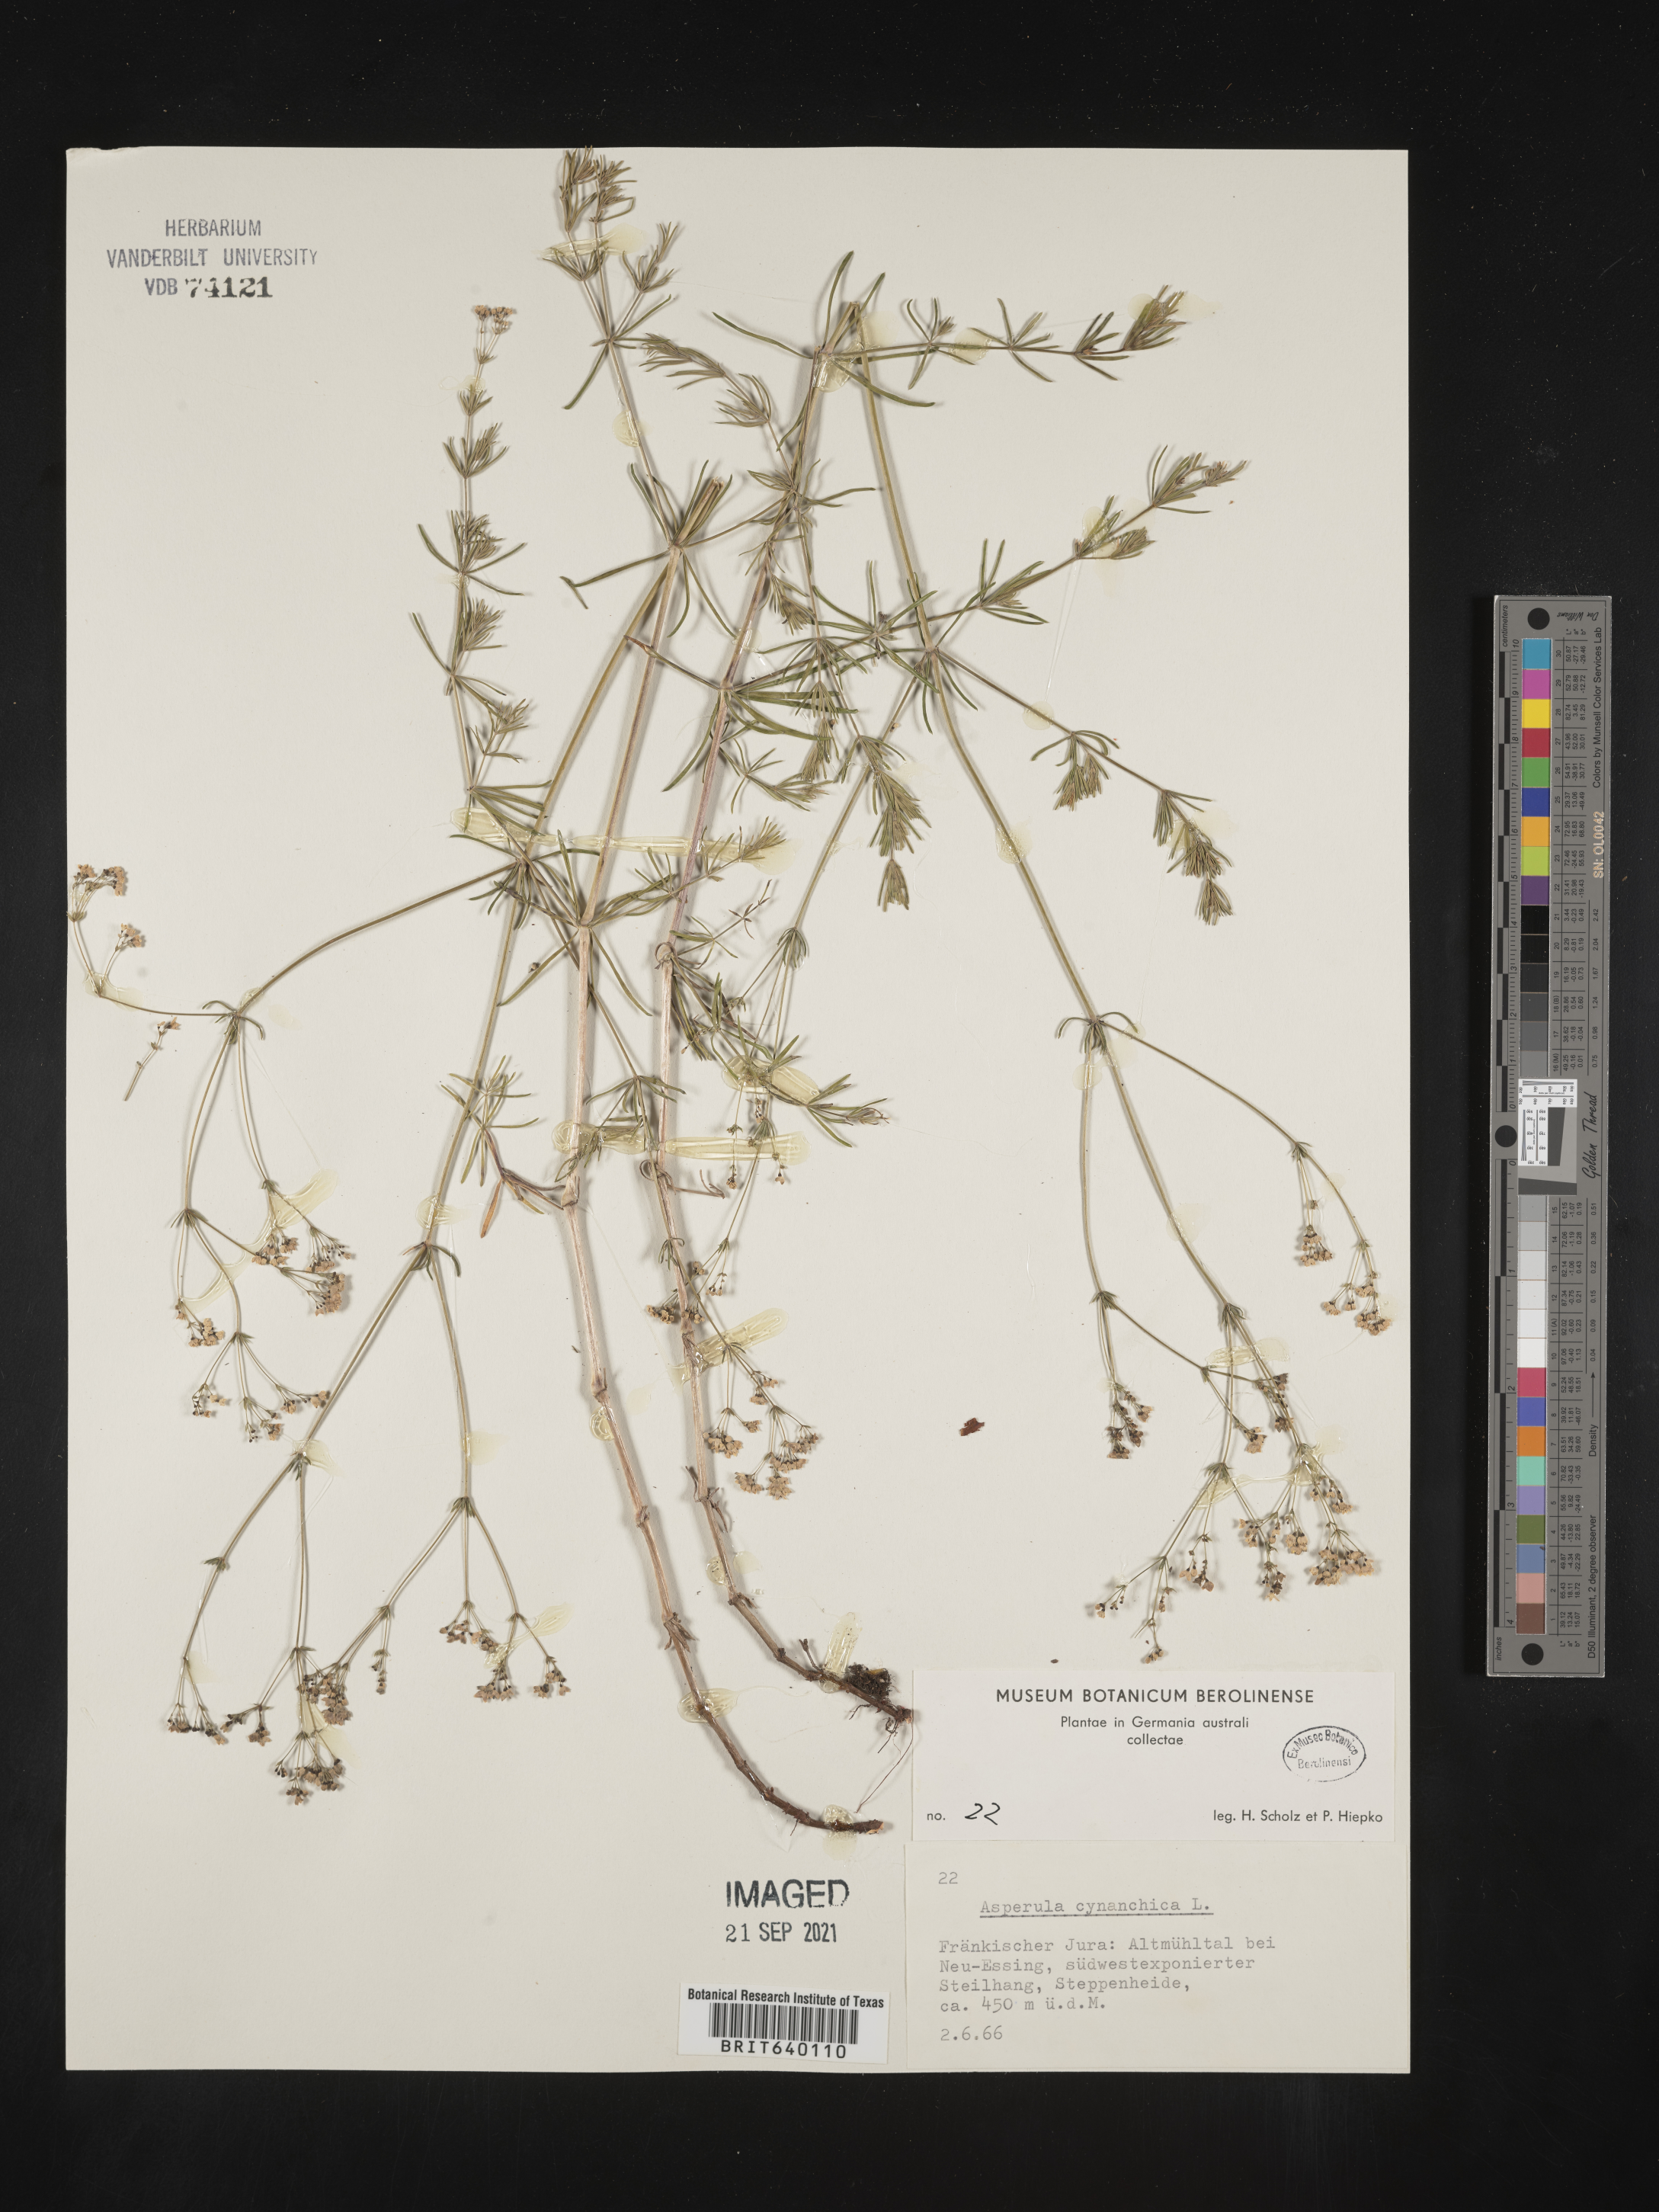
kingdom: Plantae
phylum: Tracheophyta
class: Magnoliopsida
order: Gentianales
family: Rubiaceae
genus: Asperula
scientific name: Asperula
